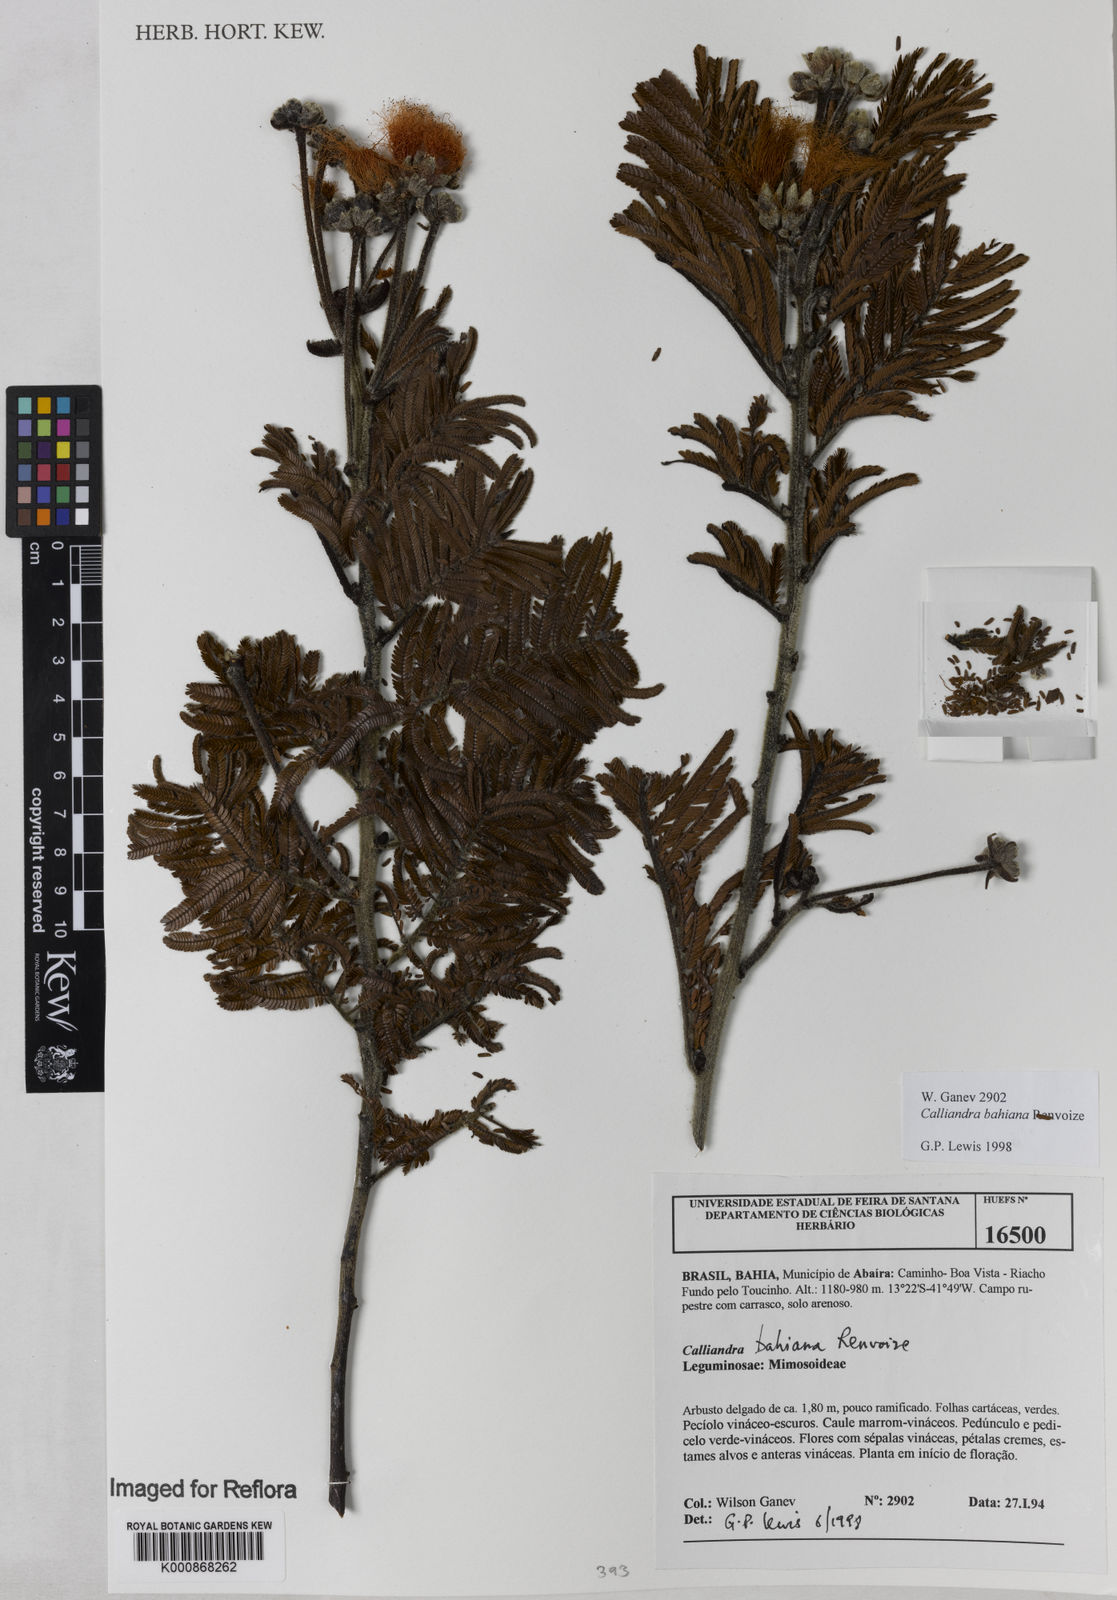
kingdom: Plantae
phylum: Tracheophyta
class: Magnoliopsida
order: Fabales
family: Fabaceae
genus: Calliandra
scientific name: Calliandra bahiana
